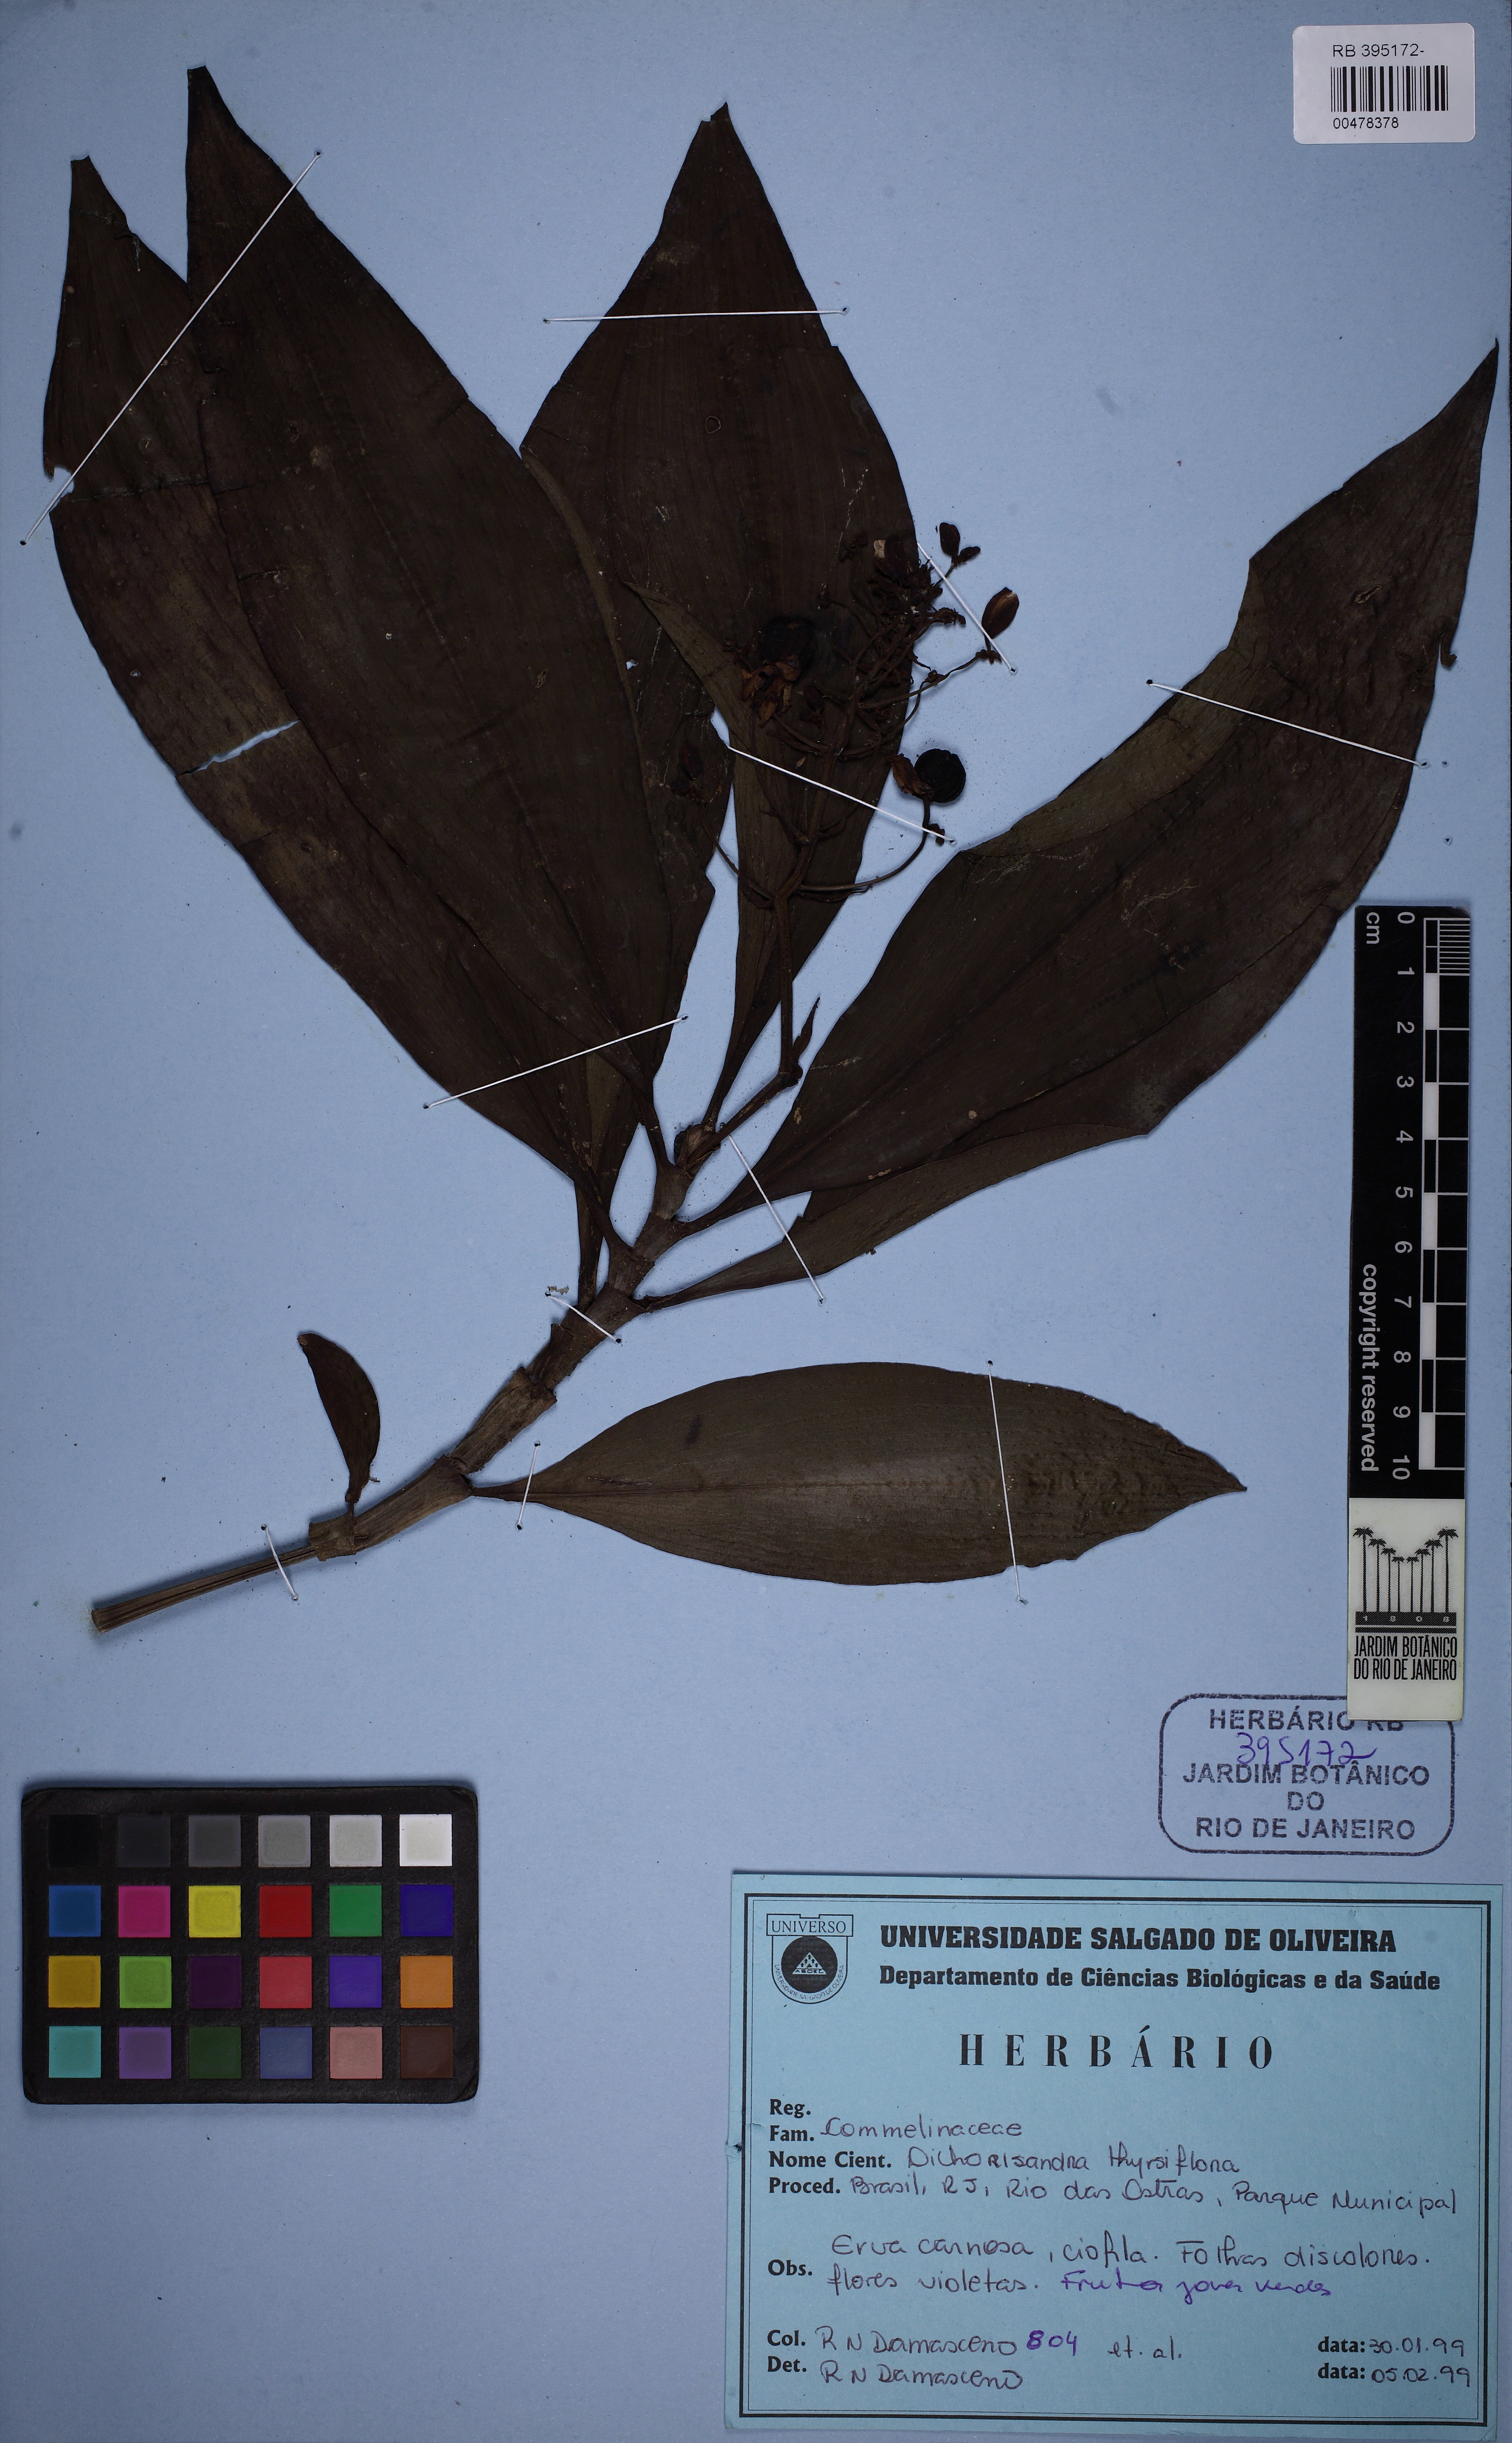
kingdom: Plantae
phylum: Tracheophyta
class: Liliopsida
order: Commelinales
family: Commelinaceae
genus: Dichorisandra
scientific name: Dichorisandra thyrsiflora
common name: Blue-ginger
